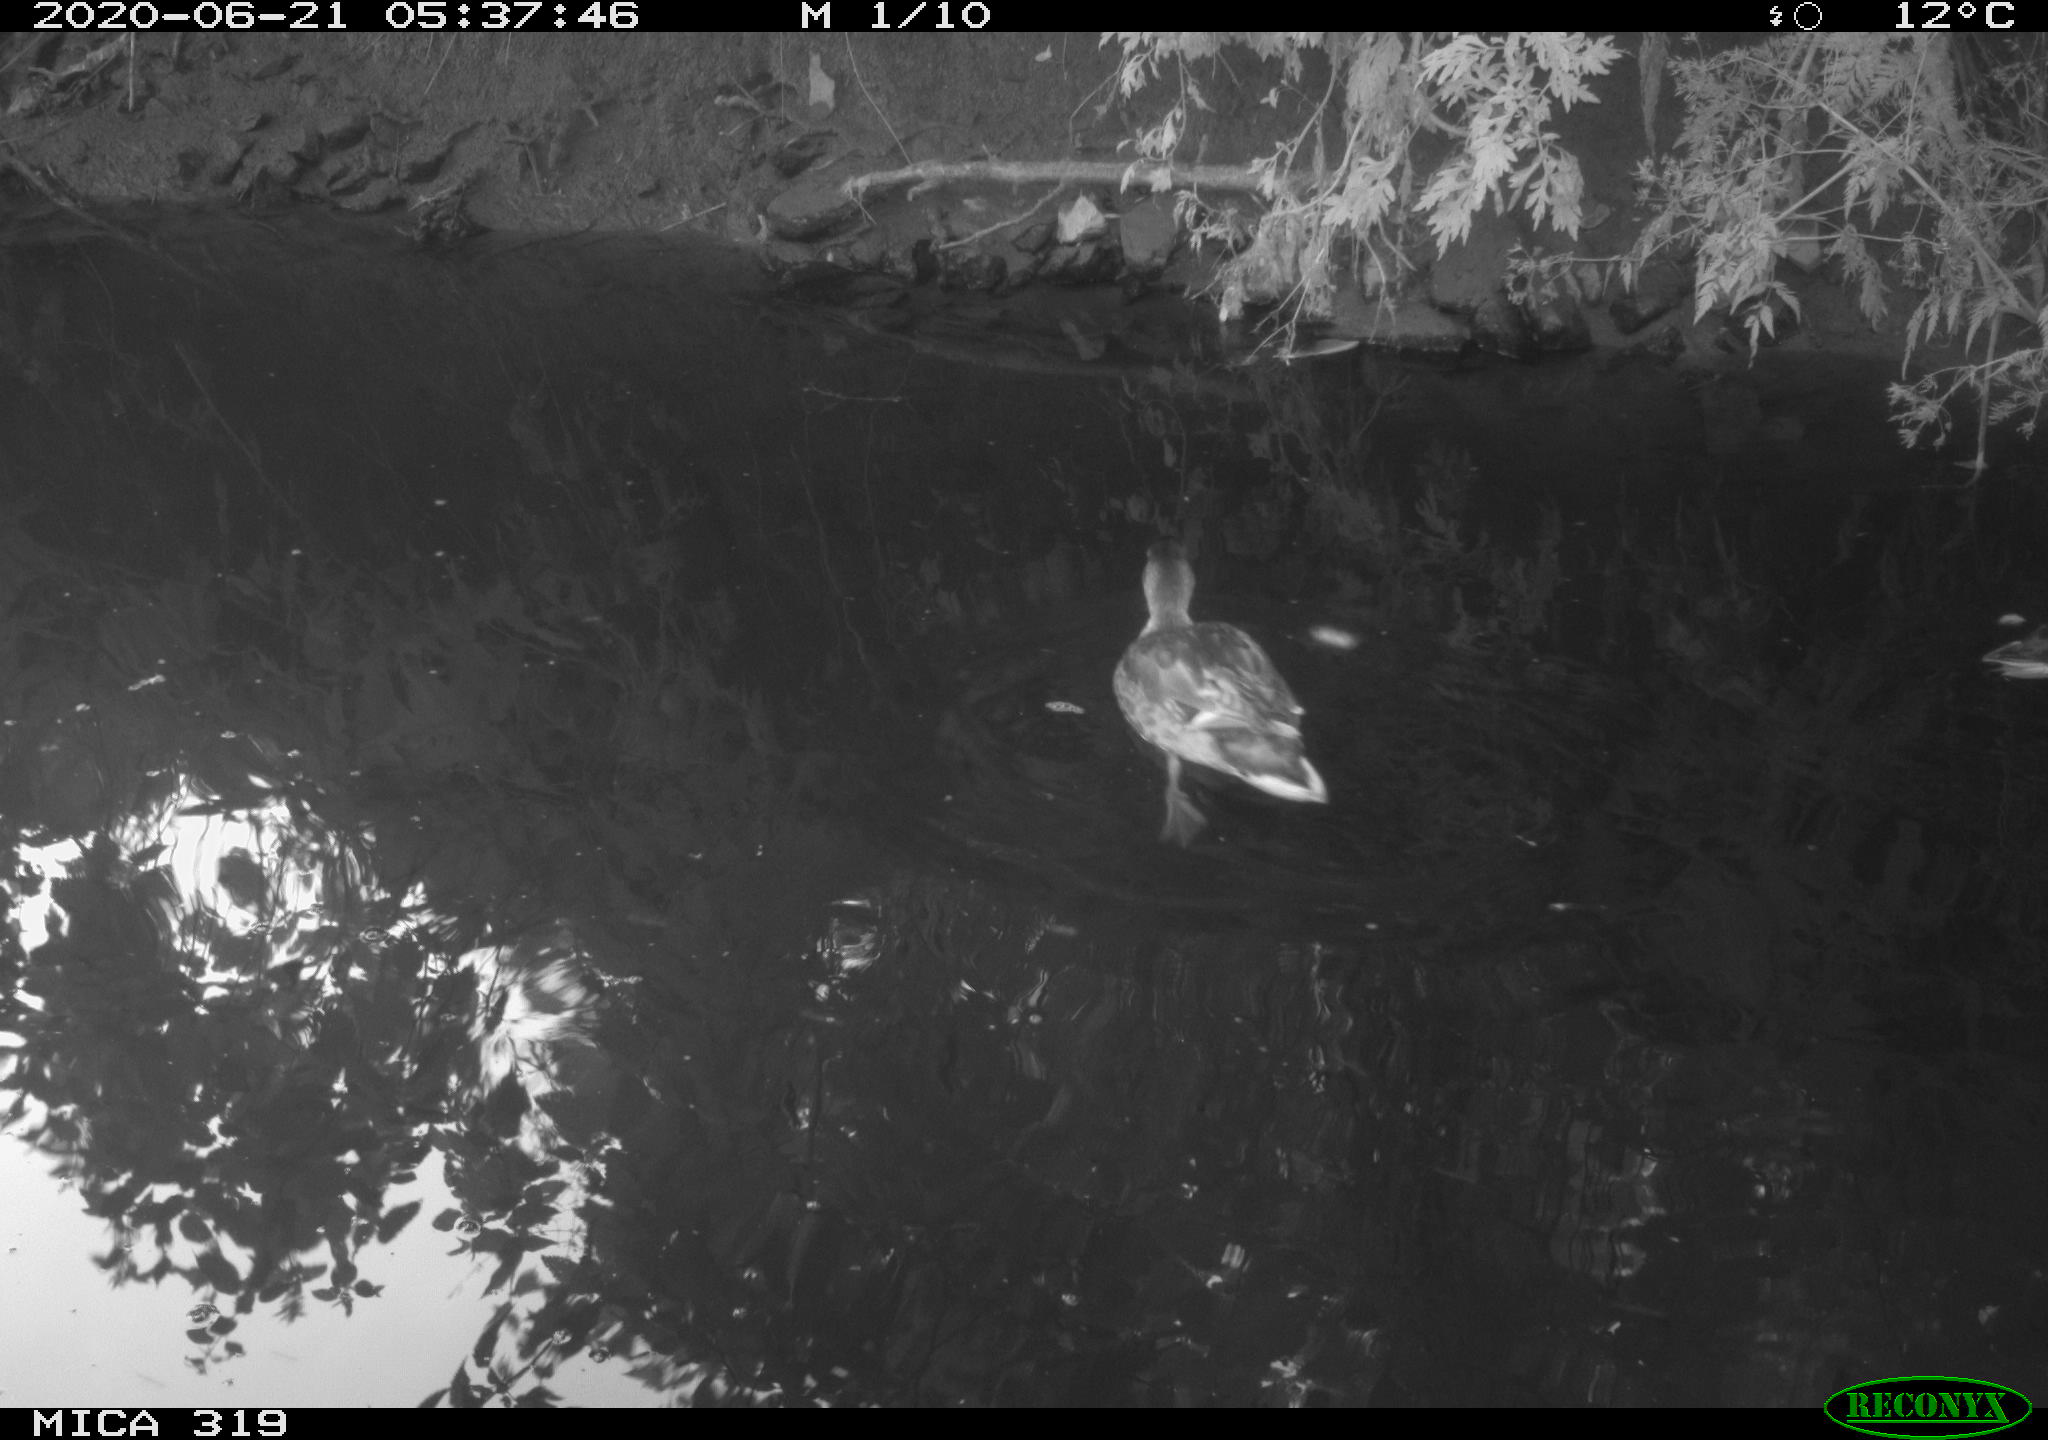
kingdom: Animalia
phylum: Chordata
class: Aves
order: Anseriformes
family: Anatidae
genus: Anas
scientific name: Anas platyrhynchos
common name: Mallard
